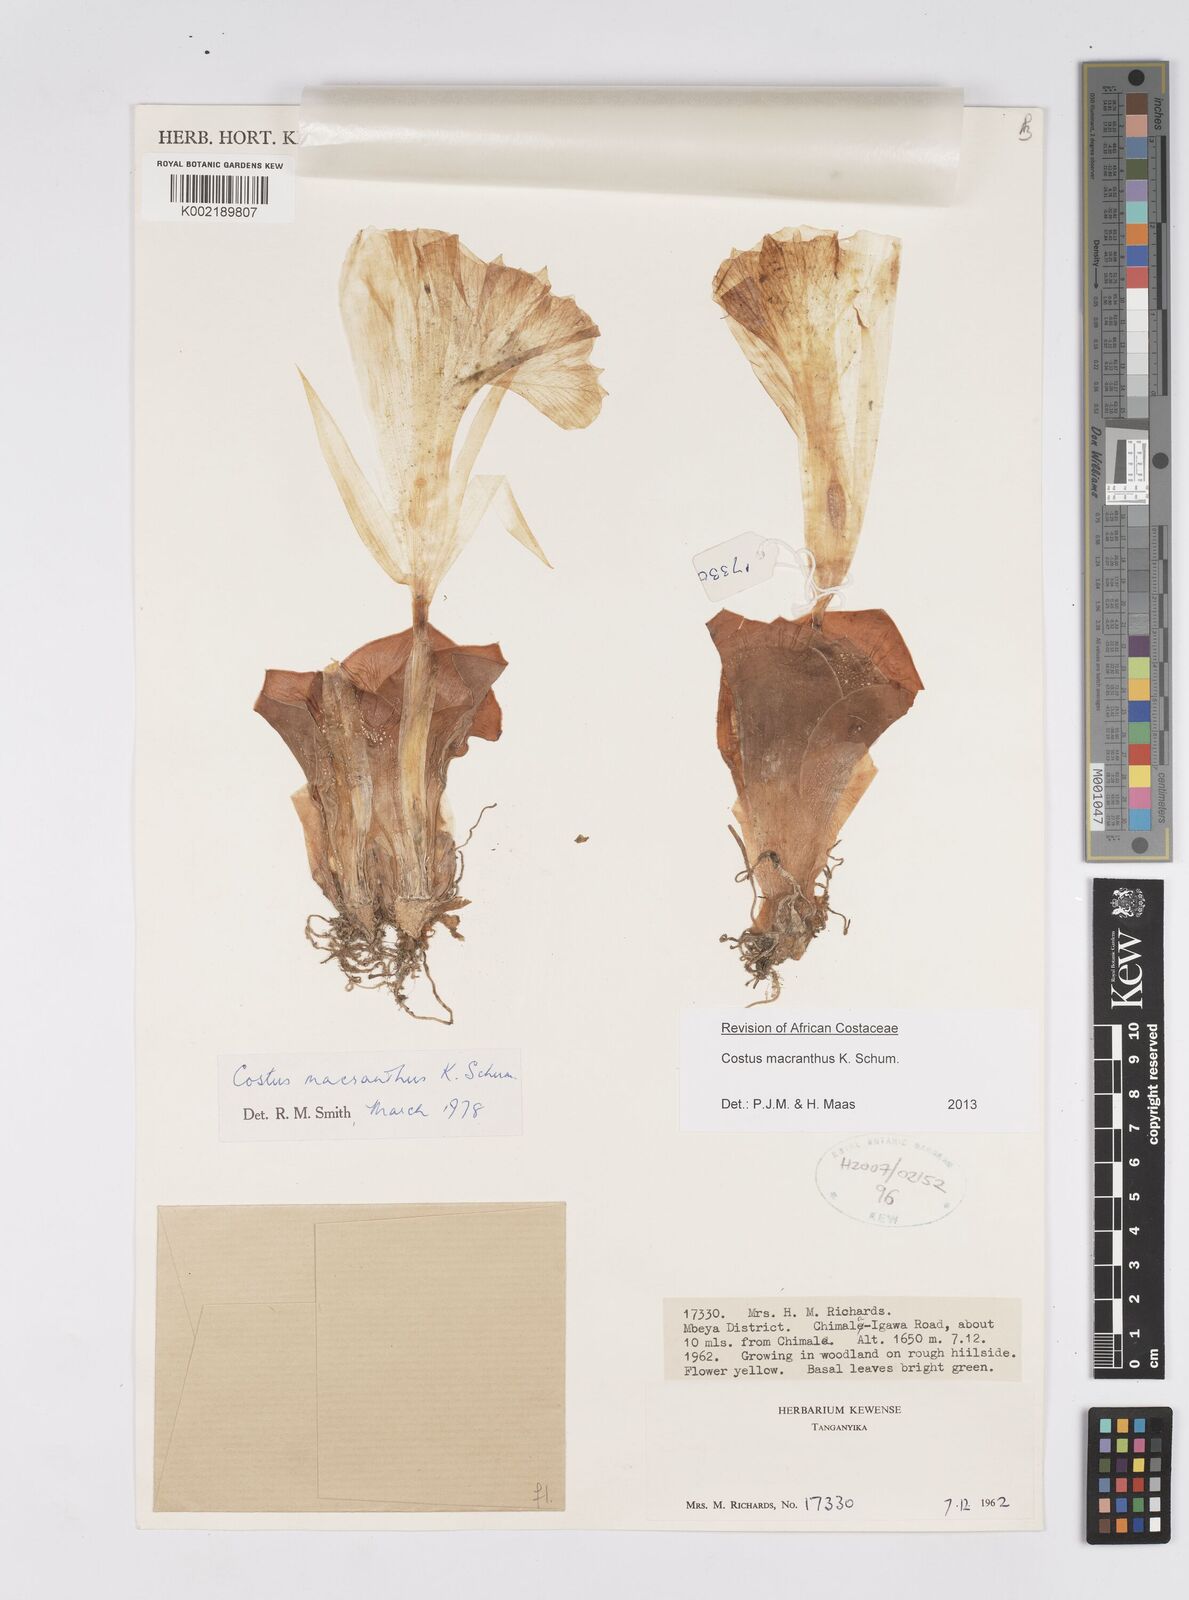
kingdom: Plantae
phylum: Tracheophyta
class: Liliopsida
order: Zingiberales
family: Costaceae
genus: Costus
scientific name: Costus macranthus
